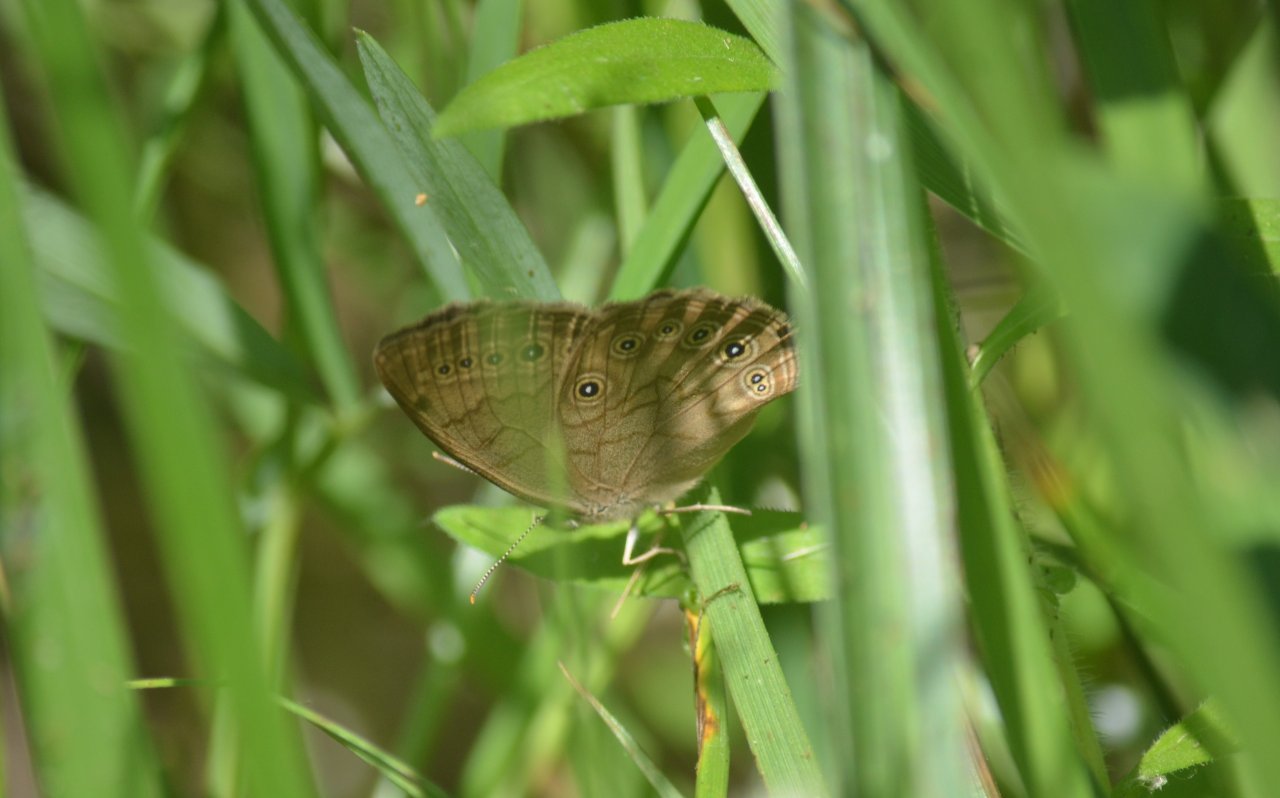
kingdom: Animalia
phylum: Arthropoda
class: Insecta
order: Lepidoptera
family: Nymphalidae
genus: Lethe
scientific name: Lethe eurydice
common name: Eyed Brown
